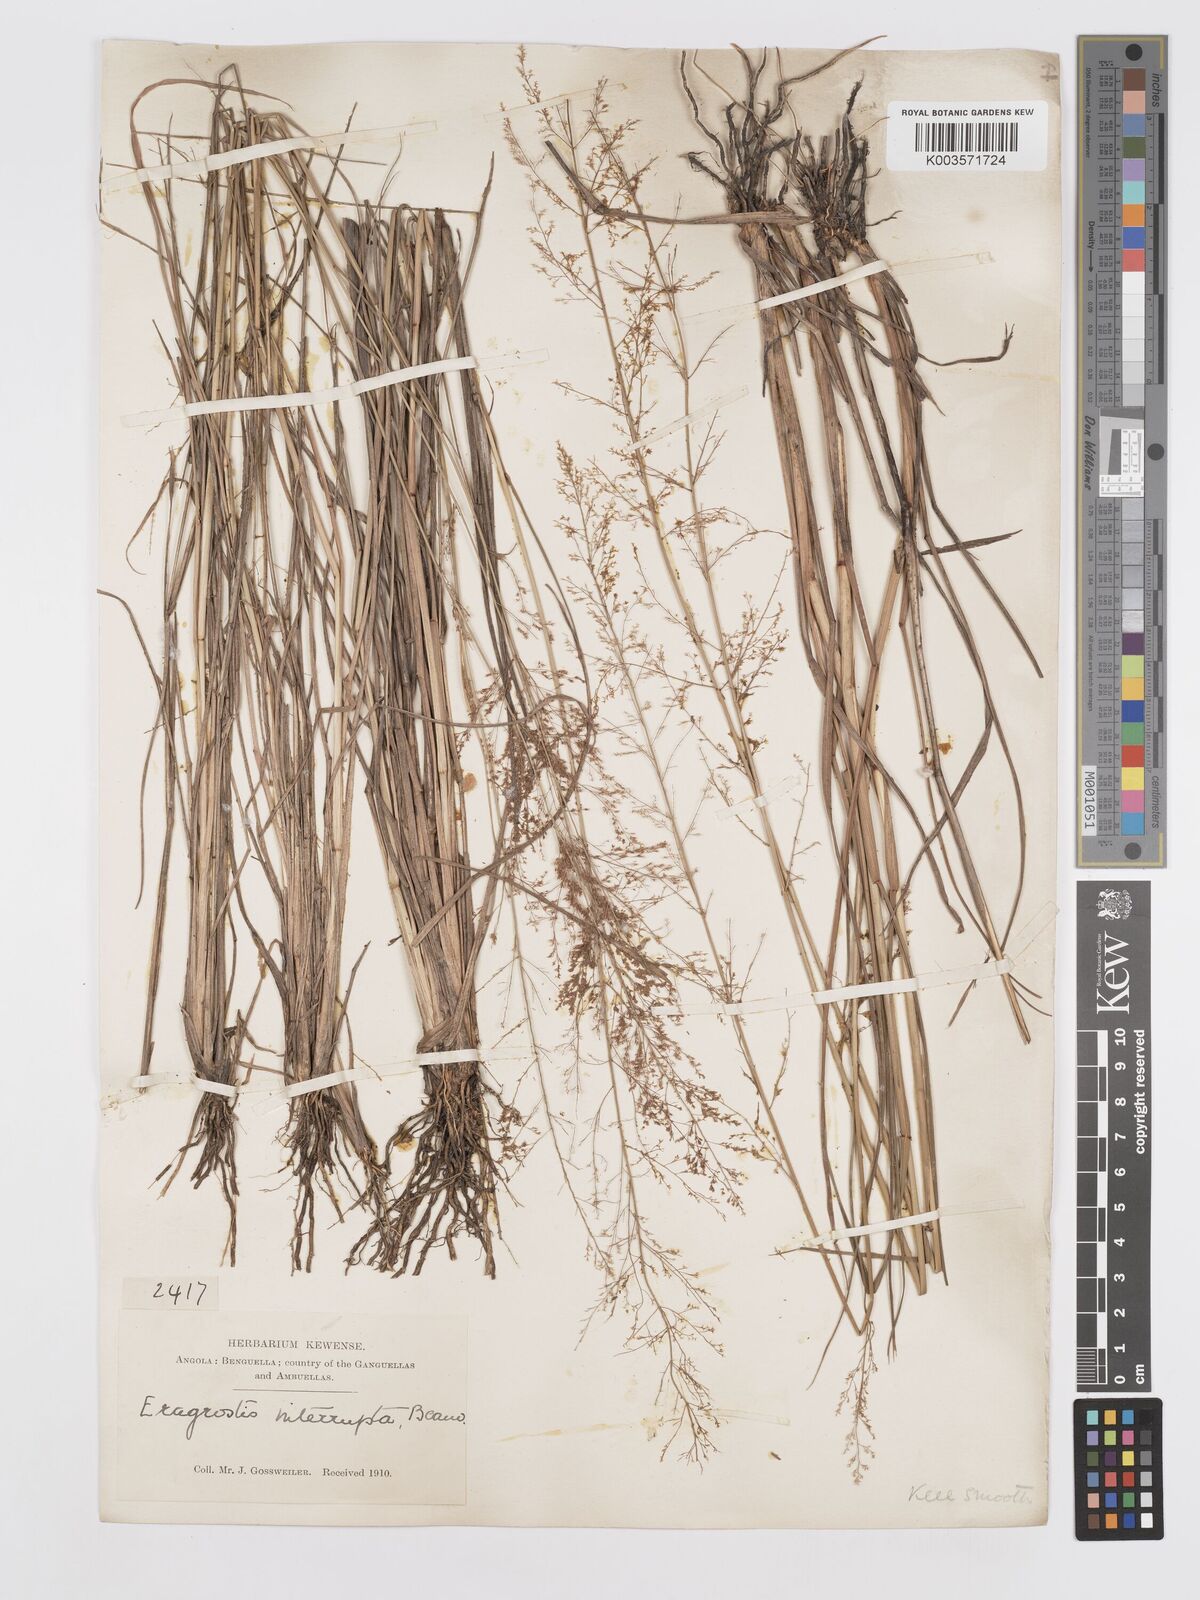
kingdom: Plantae
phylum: Tracheophyta
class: Liliopsida
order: Poales
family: Poaceae
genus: Eragrostis
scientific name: Eragrostis japonica
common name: Pond lovegrass
